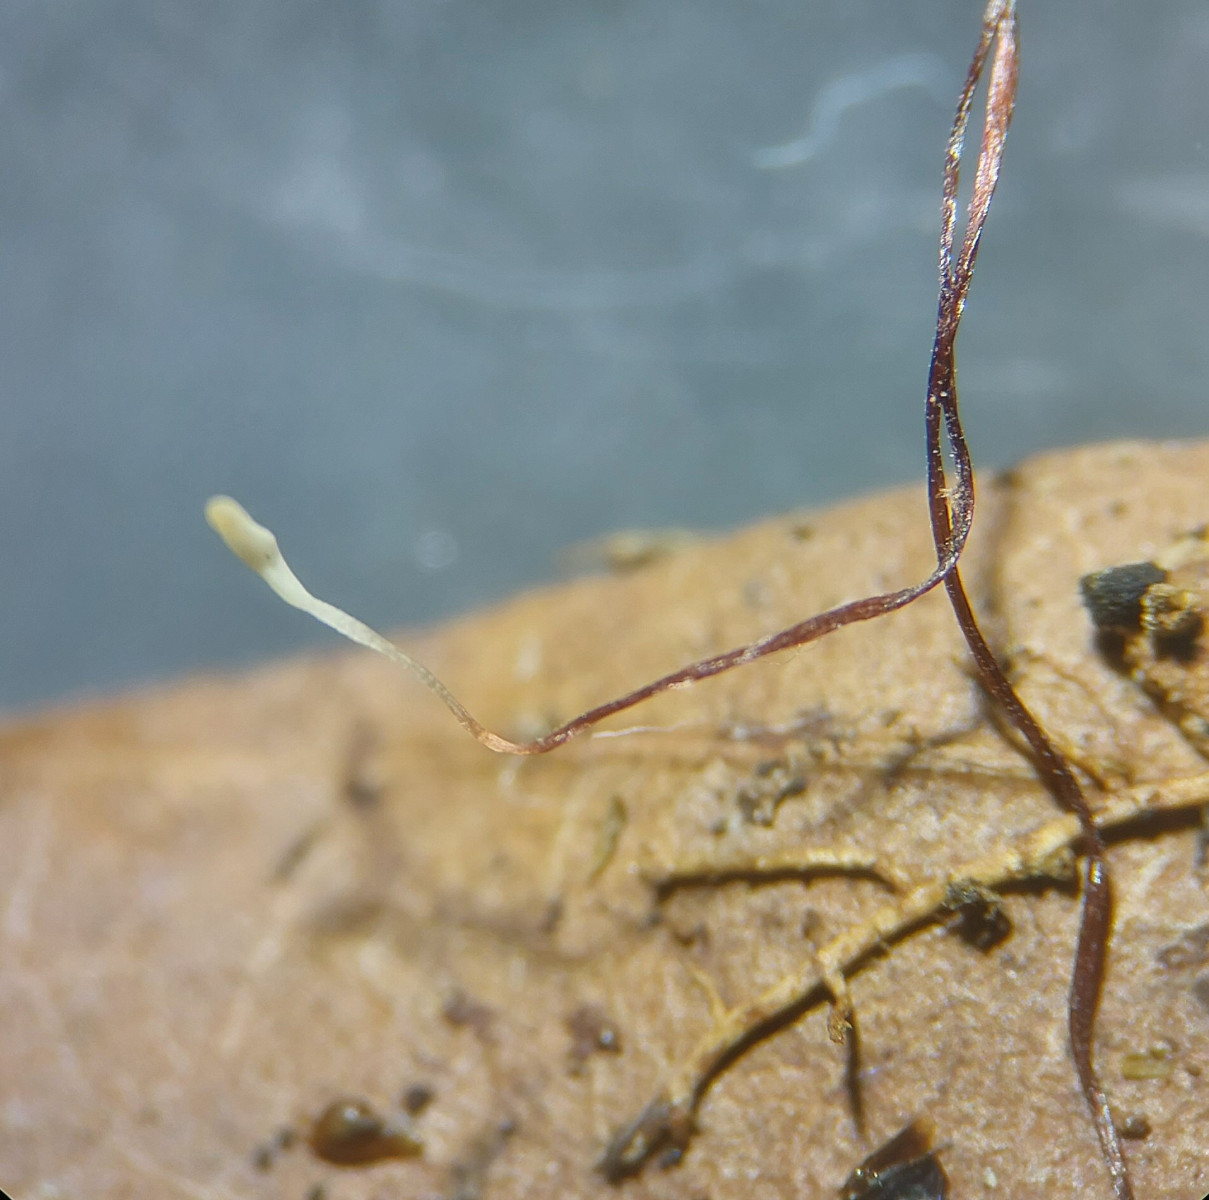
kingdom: Fungi
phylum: Basidiomycota
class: Agaricomycetes
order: Agaricales
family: Typhulaceae
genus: Typhula
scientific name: Typhula erythropus
